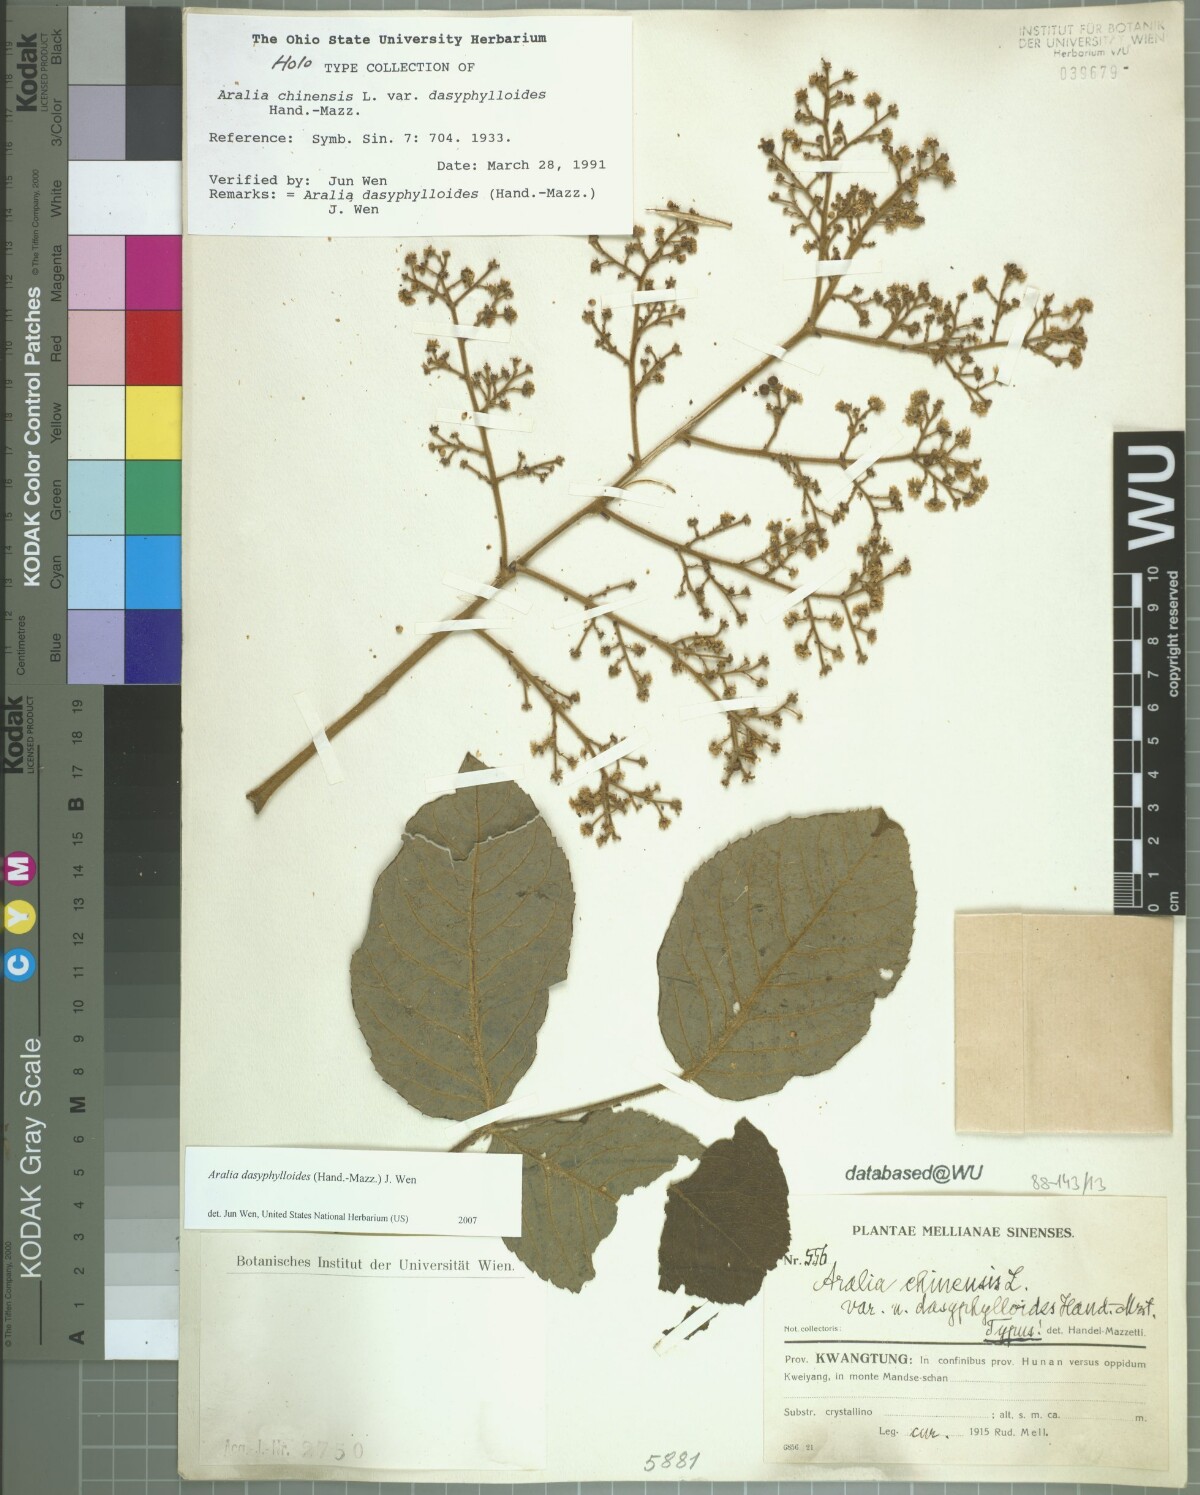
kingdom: Plantae
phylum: Tracheophyta
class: Magnoliopsida
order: Apiales
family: Araliaceae
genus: Aralia
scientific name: Aralia dasyphylloides
